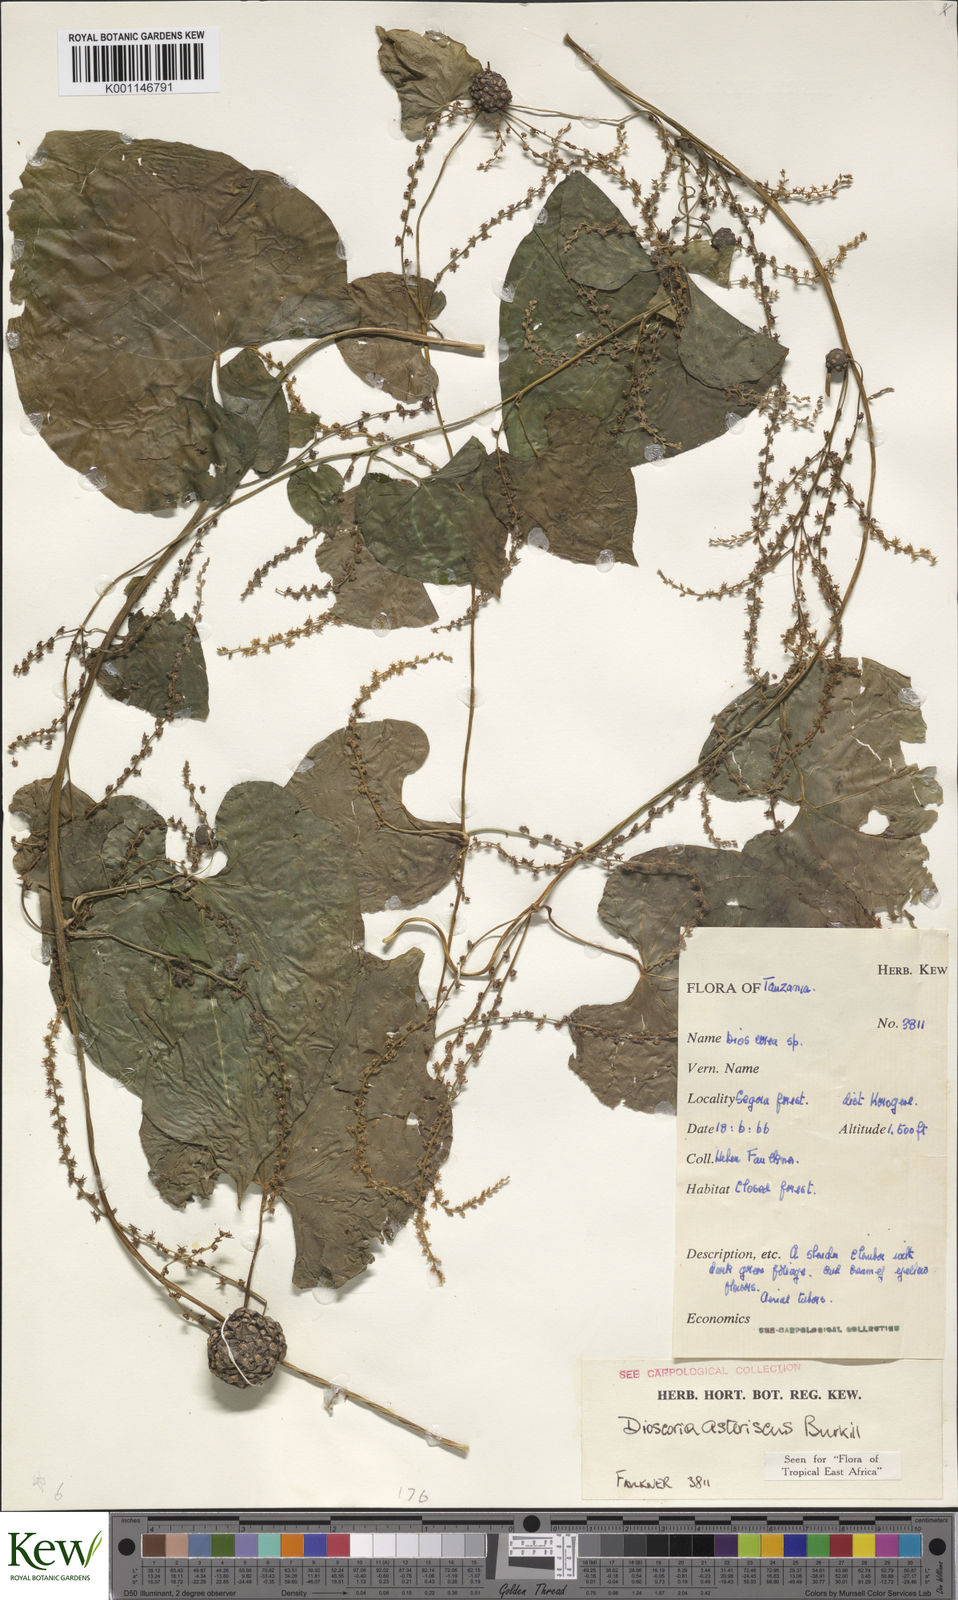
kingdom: Plantae
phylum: Tracheophyta
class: Liliopsida
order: Dioscoreales
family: Dioscoreaceae
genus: Dioscorea
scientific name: Dioscorea asteriscus
